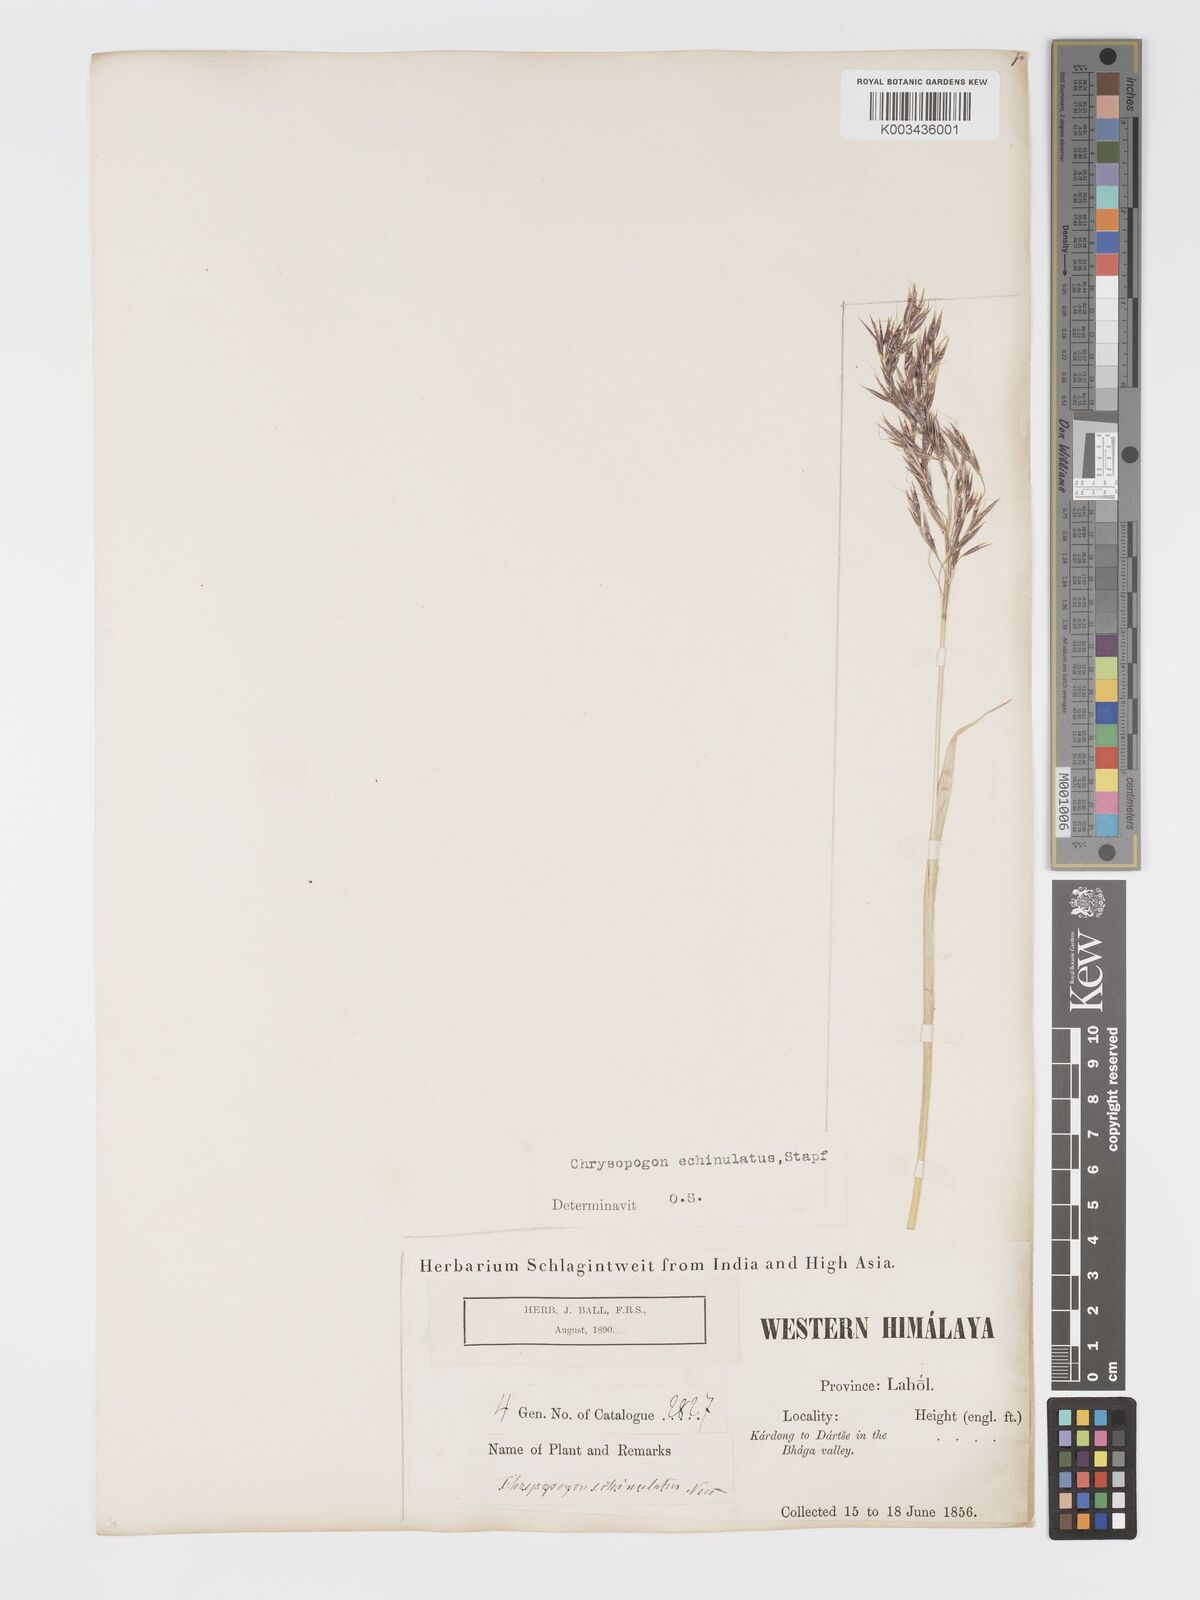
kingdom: Plantae
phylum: Tracheophyta
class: Liliopsida
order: Poales
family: Poaceae
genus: Chrysopogon
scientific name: Chrysopogon gryllus
